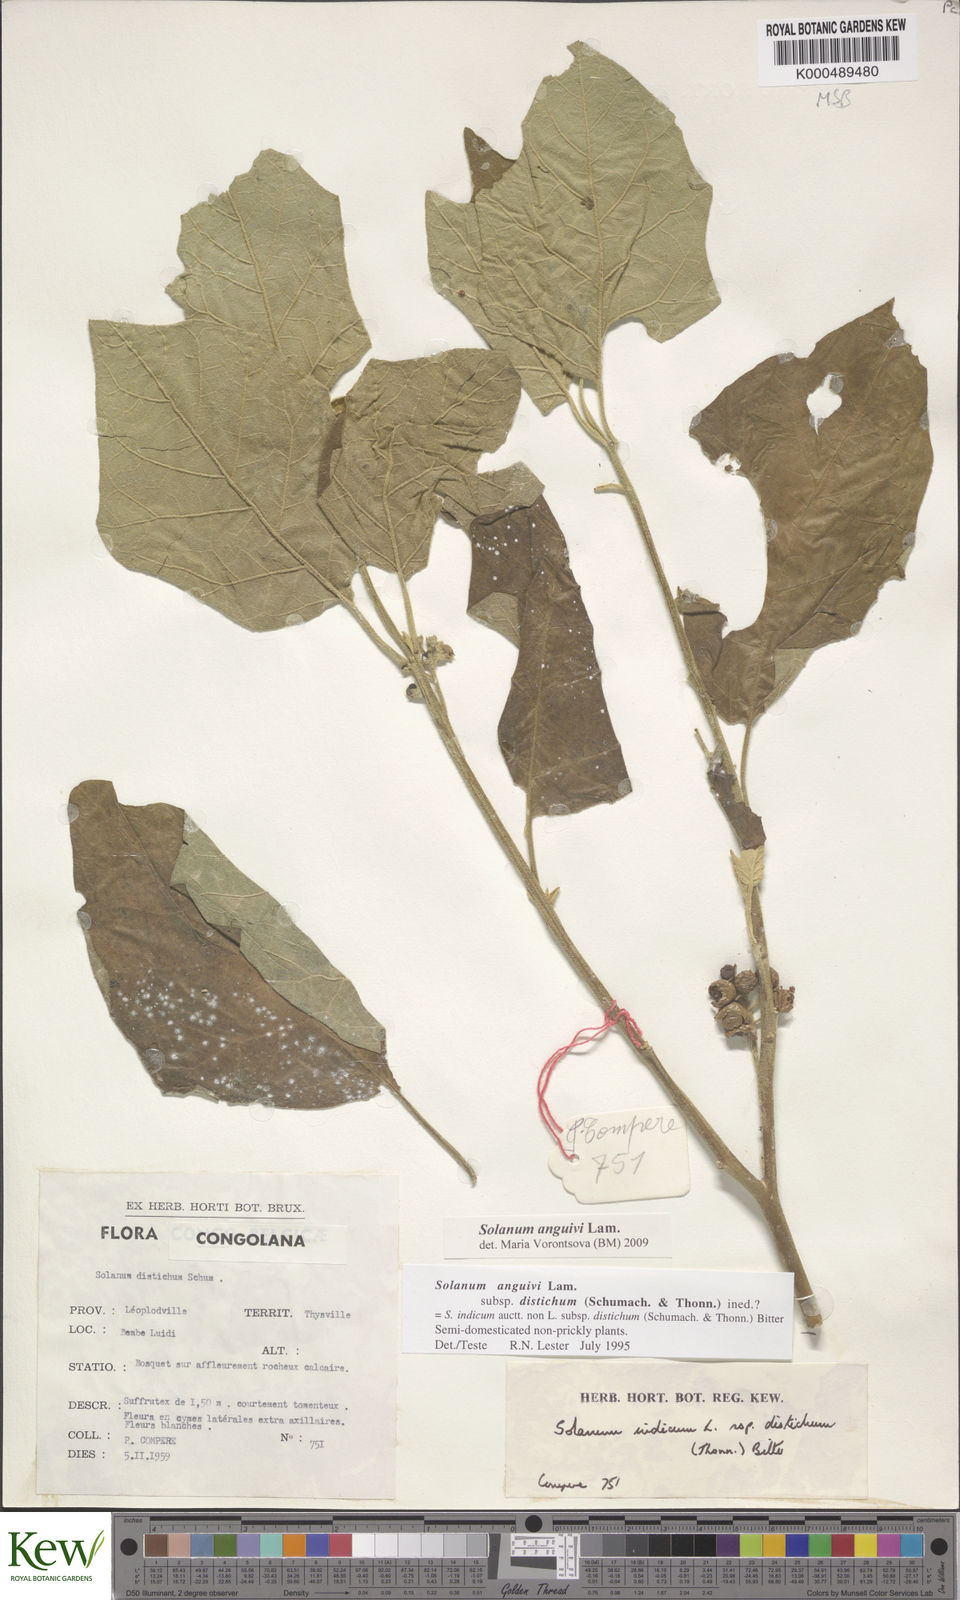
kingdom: Plantae
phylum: Tracheophyta
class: Magnoliopsida
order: Solanales
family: Solanaceae
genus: Solanum
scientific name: Solanum anguivi
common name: Forest bitterberry
